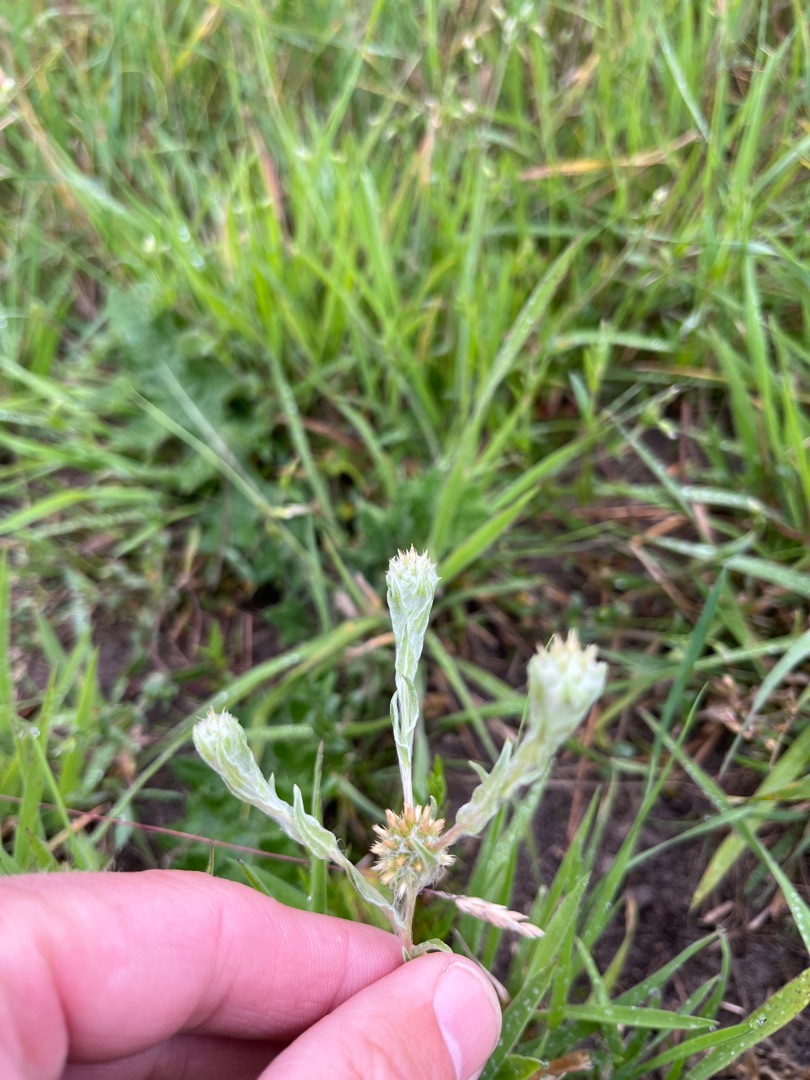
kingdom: Plantae
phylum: Tracheophyta
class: Magnoliopsida
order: Asterales
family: Asteraceae
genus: Filago
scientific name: Filago germanica
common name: Kugle-museurt
